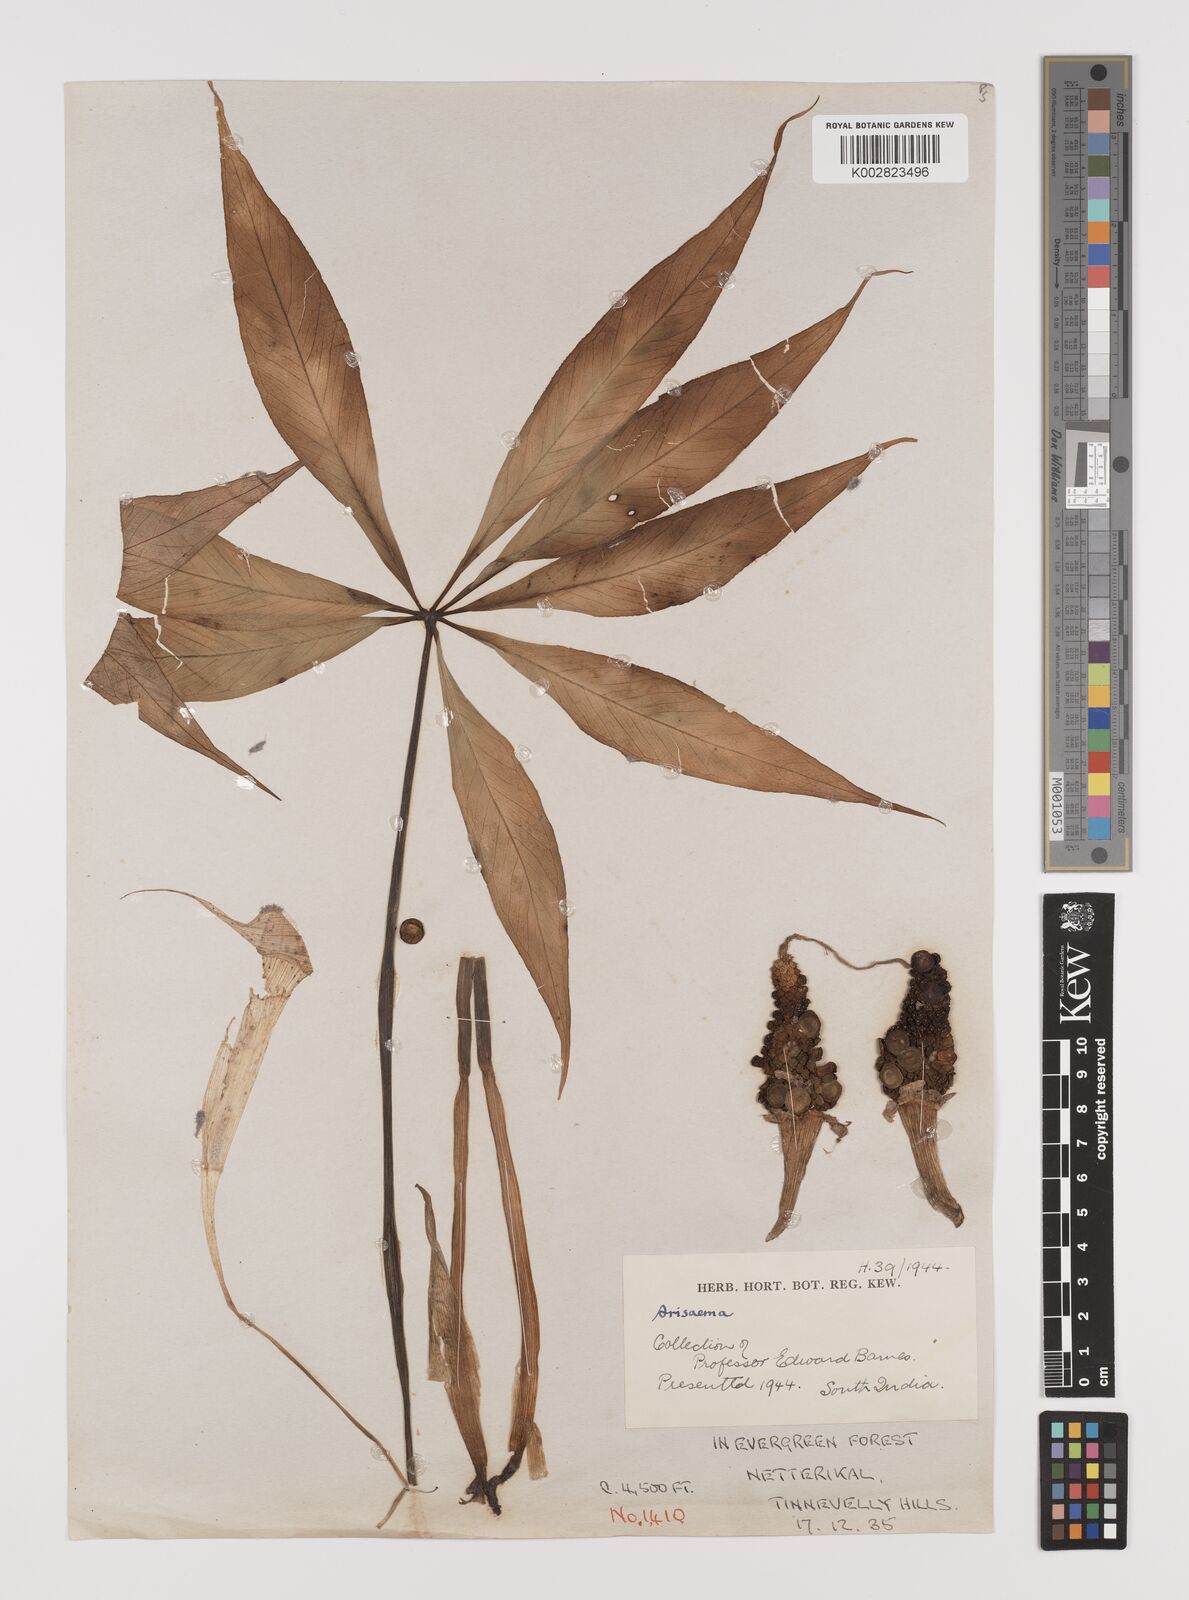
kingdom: Plantae
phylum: Tracheophyta
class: Liliopsida
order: Alismatales
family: Araceae
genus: Arisaema
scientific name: Arisaema
